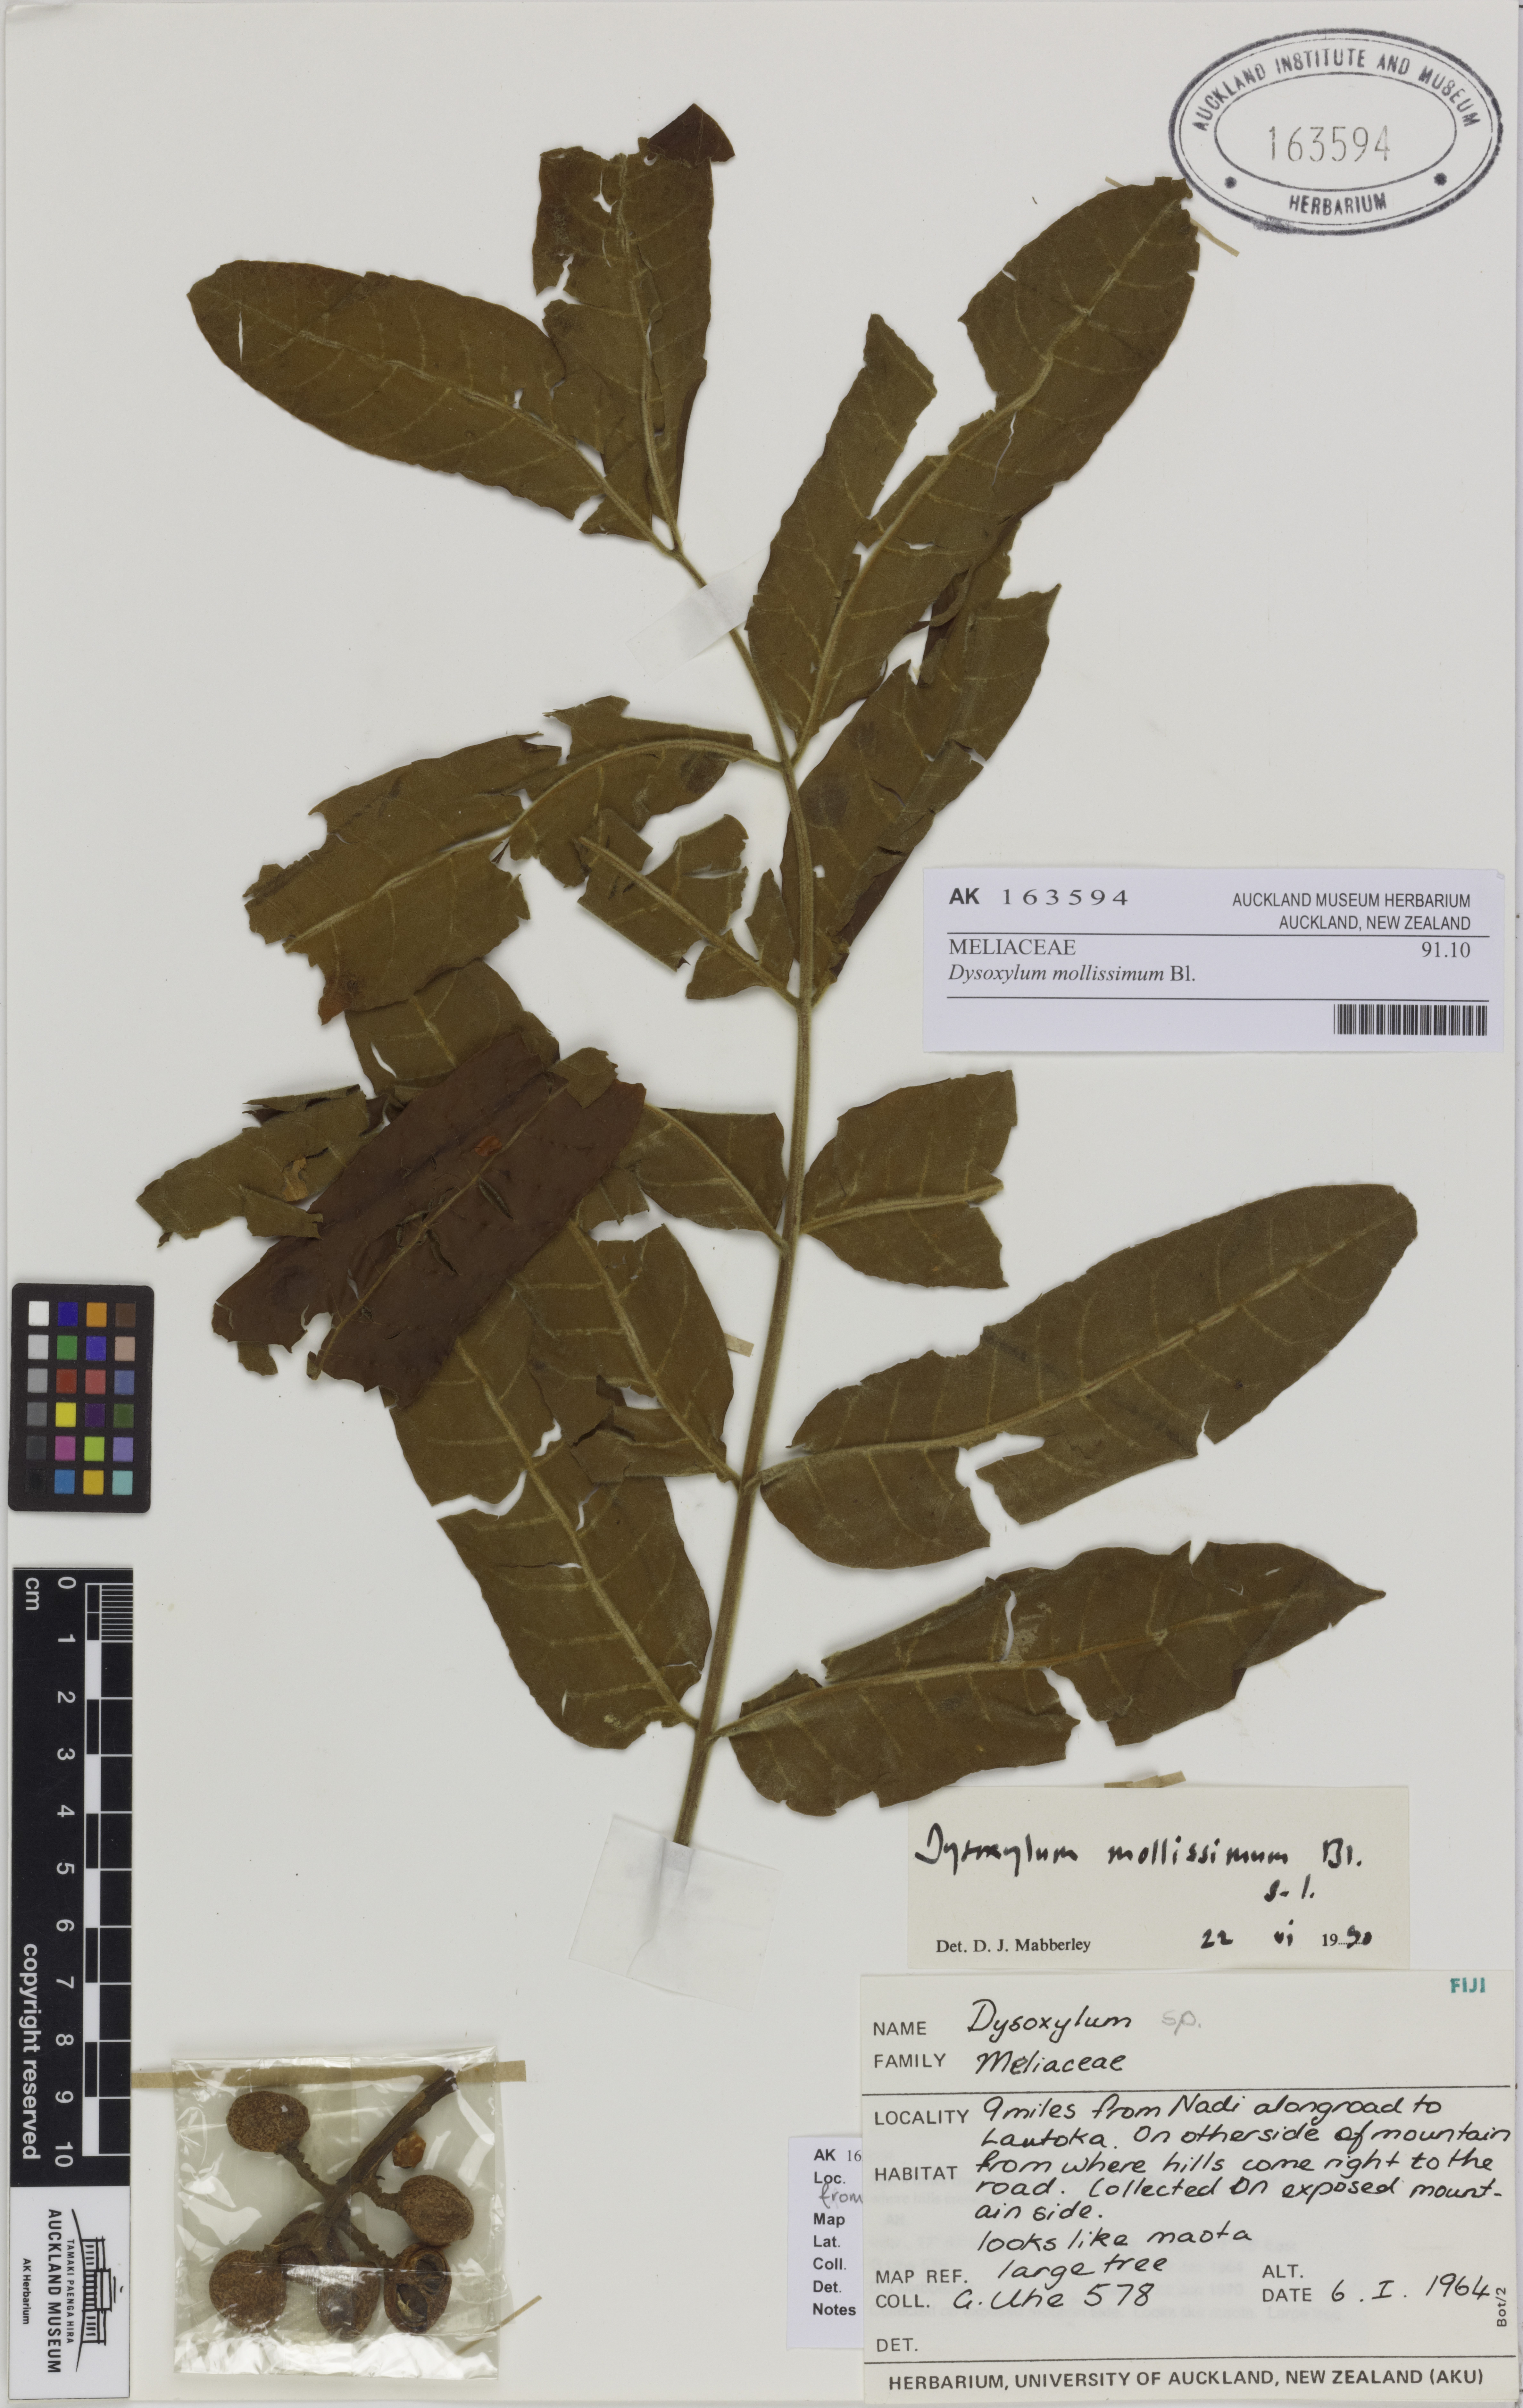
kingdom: Plantae
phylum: Tracheophyta
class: Magnoliopsida
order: Sapindales
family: Meliaceae
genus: Dysoxylum
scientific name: Dysoxylum mollissimum
